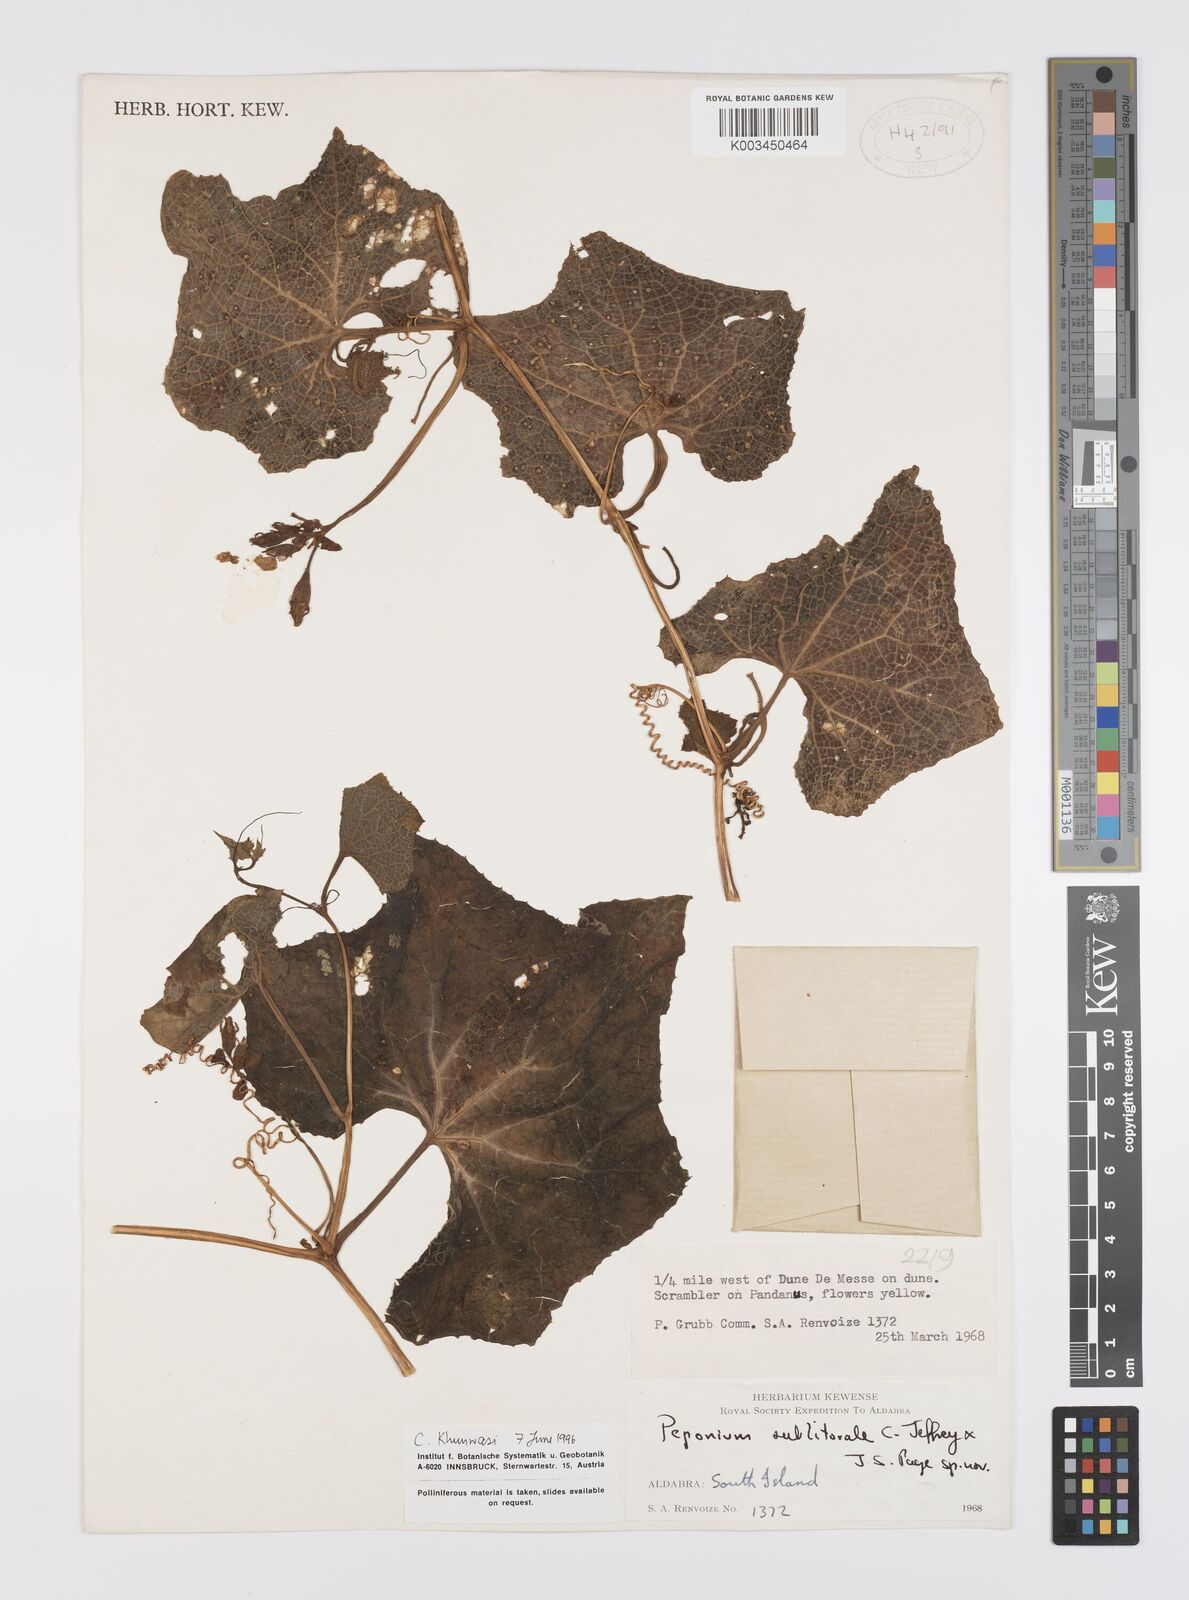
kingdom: Plantae
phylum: Tracheophyta
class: Magnoliopsida
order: Cucurbitales
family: Cucurbitaceae
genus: Peponium
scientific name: Peponium sublitorale
